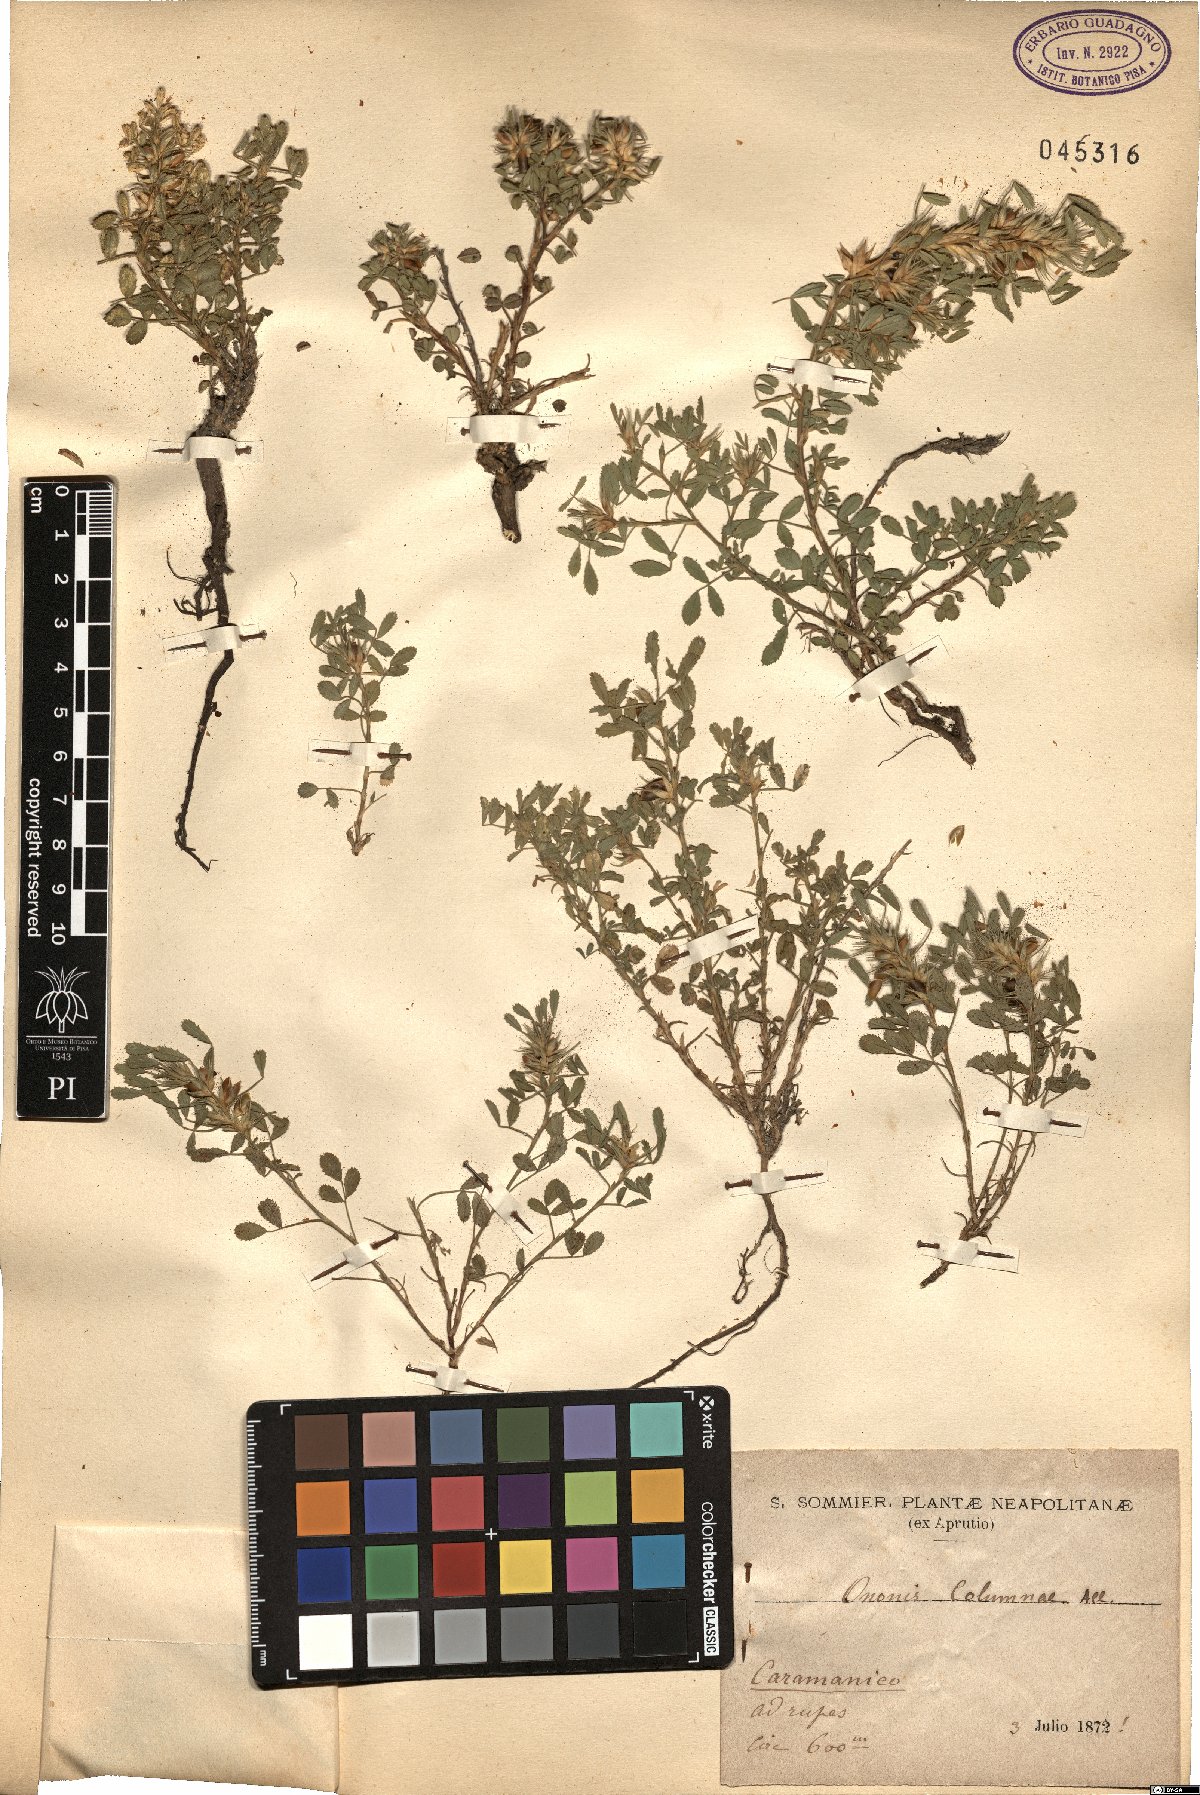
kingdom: Plantae
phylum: Tracheophyta
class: Magnoliopsida
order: Fabales
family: Fabaceae
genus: Ononis
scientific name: Ononis pusilla
